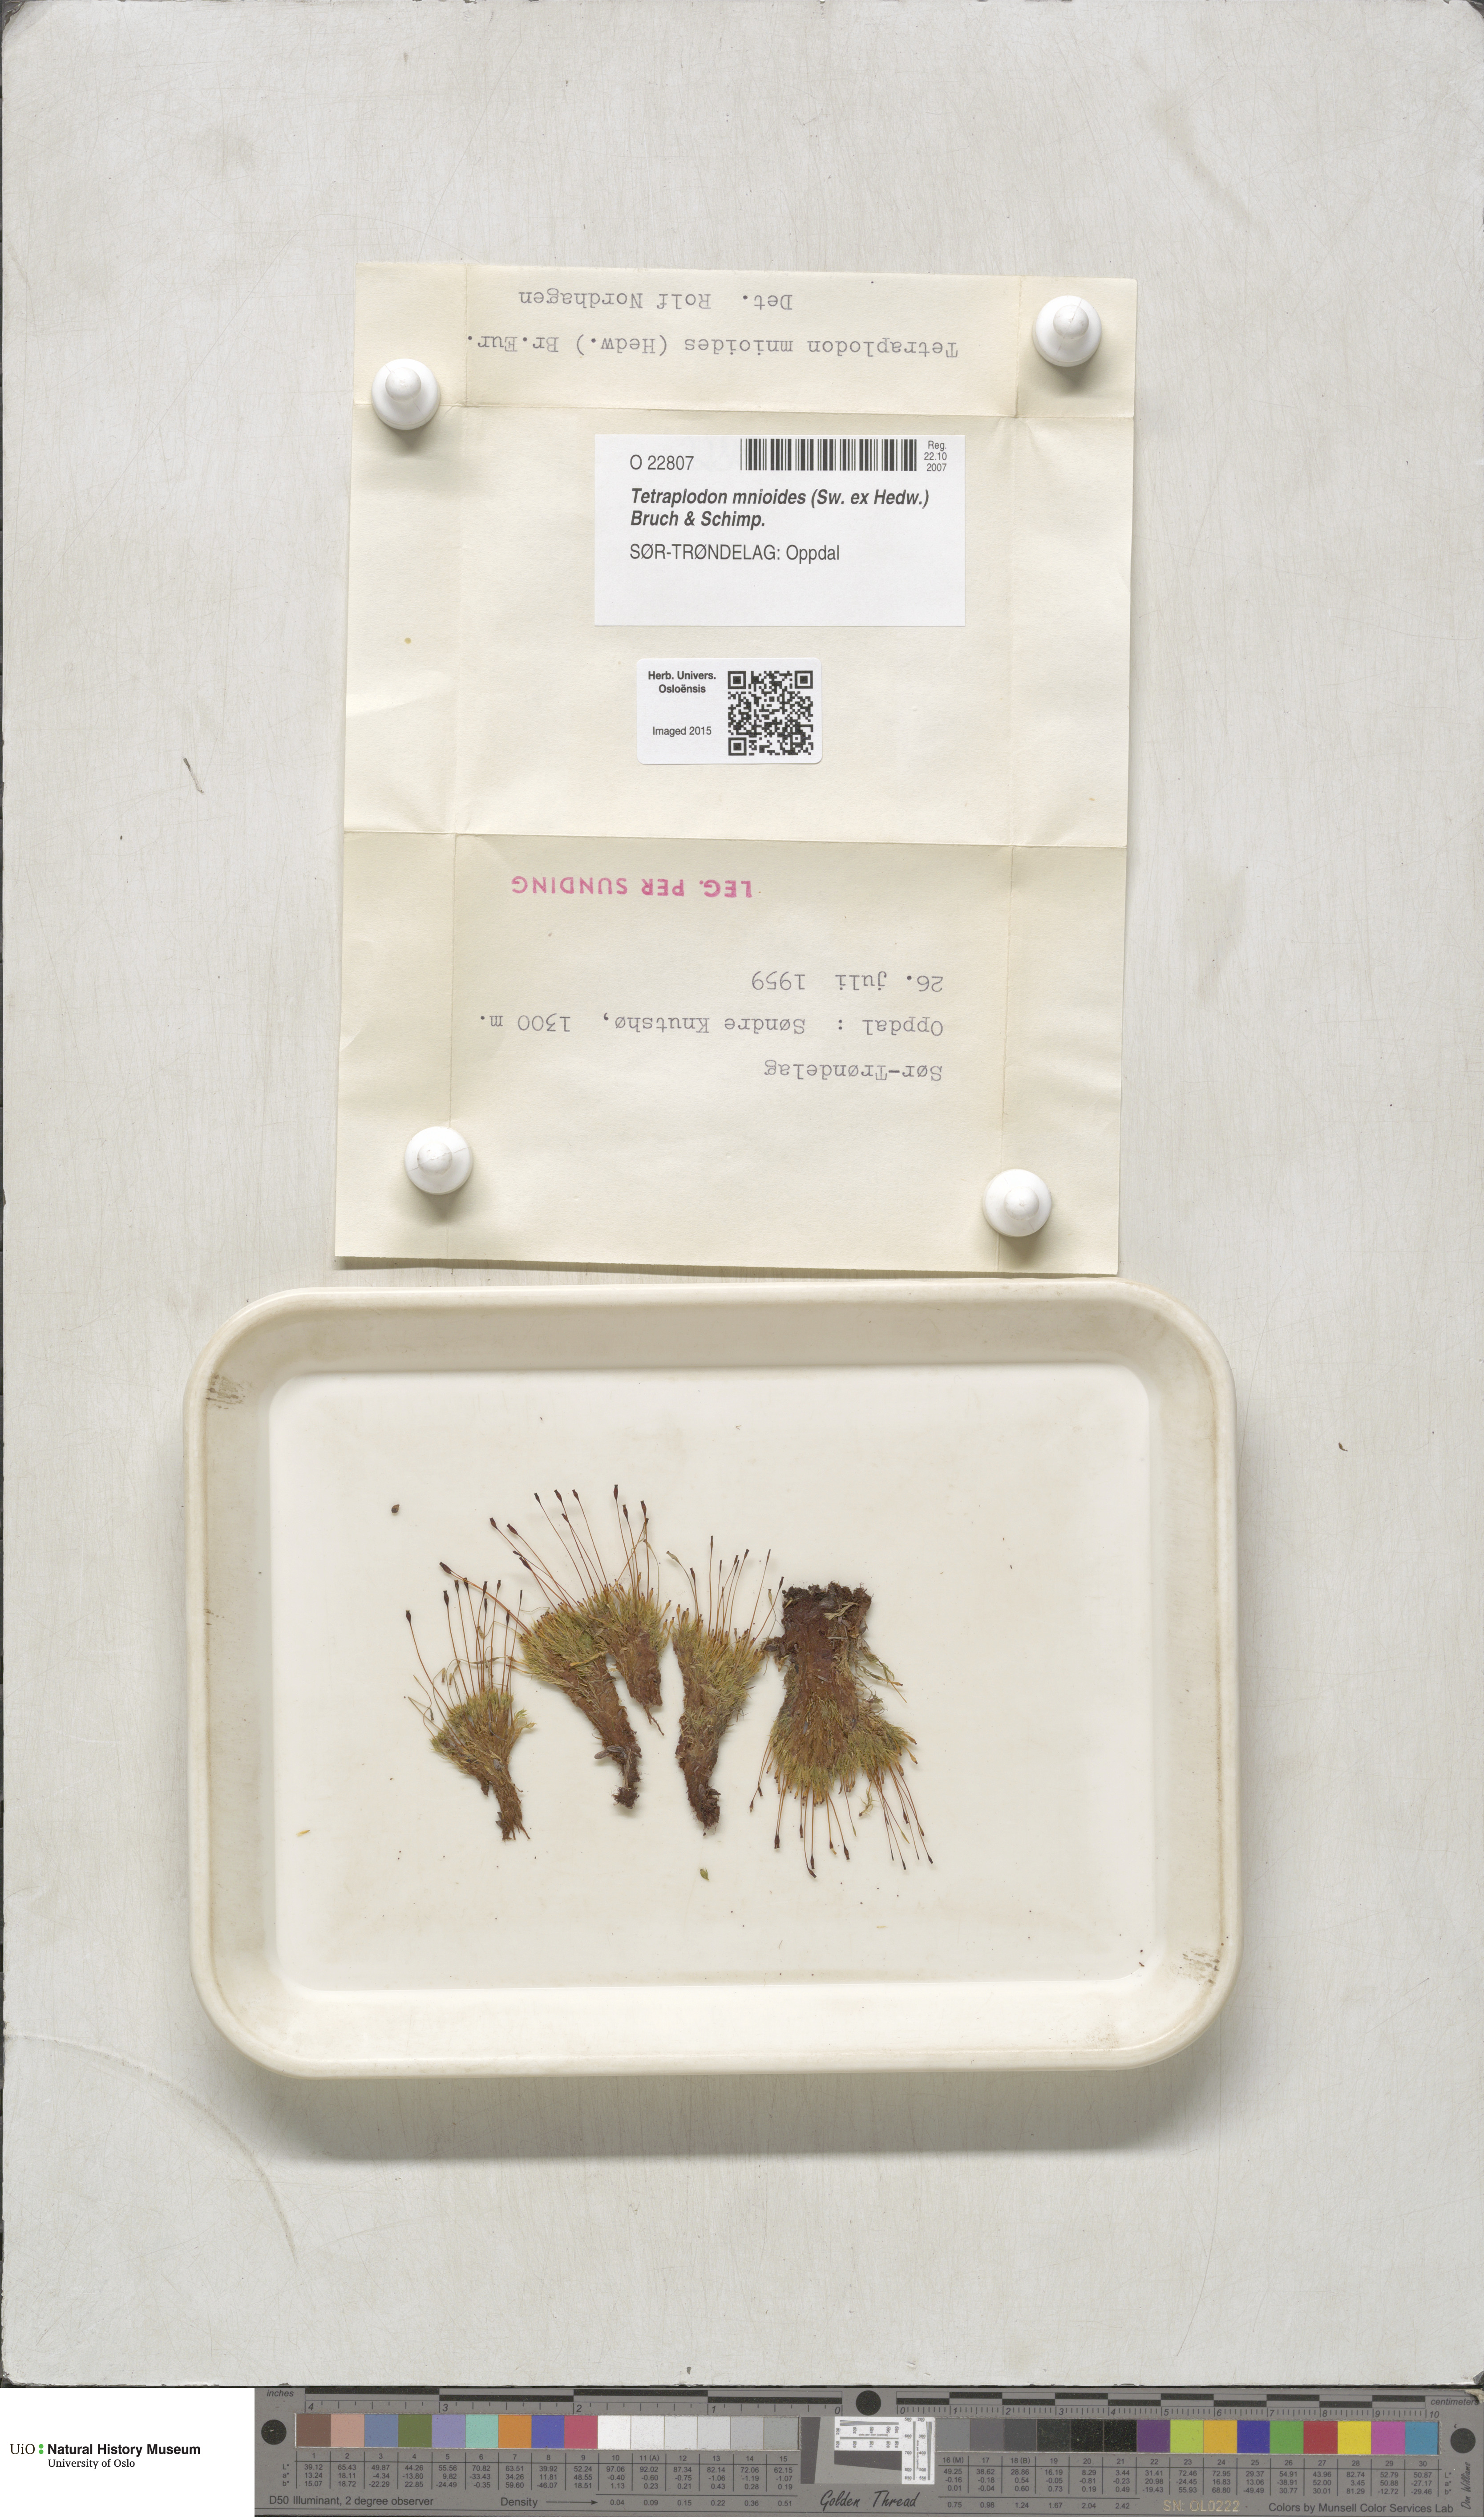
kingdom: Plantae
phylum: Bryophyta
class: Bryopsida
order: Splachnales
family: Splachnaceae
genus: Tetraplodon
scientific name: Tetraplodon mnioides
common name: Entire-leaved nitrogen moss
